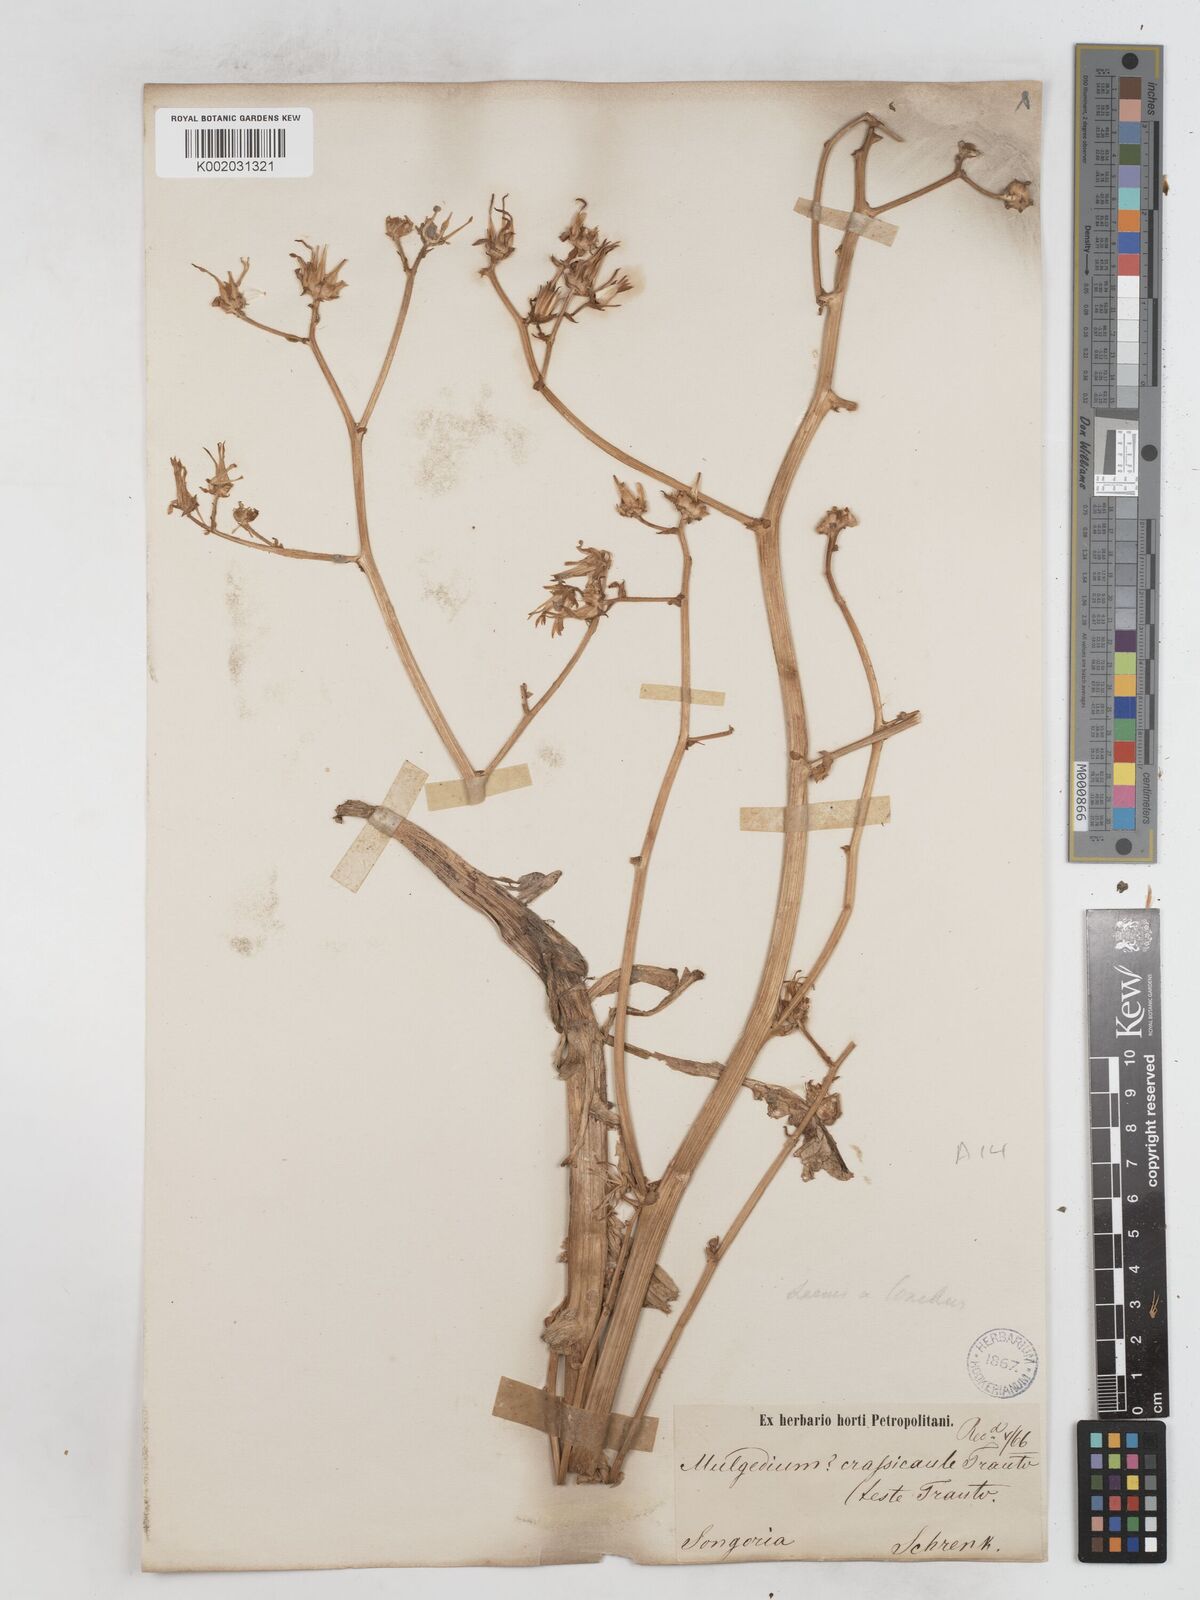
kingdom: Plantae
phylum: Tracheophyta
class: Magnoliopsida
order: Asterales
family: Asteraceae
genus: Cicerbita
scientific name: Cicerbita crassicaulis
